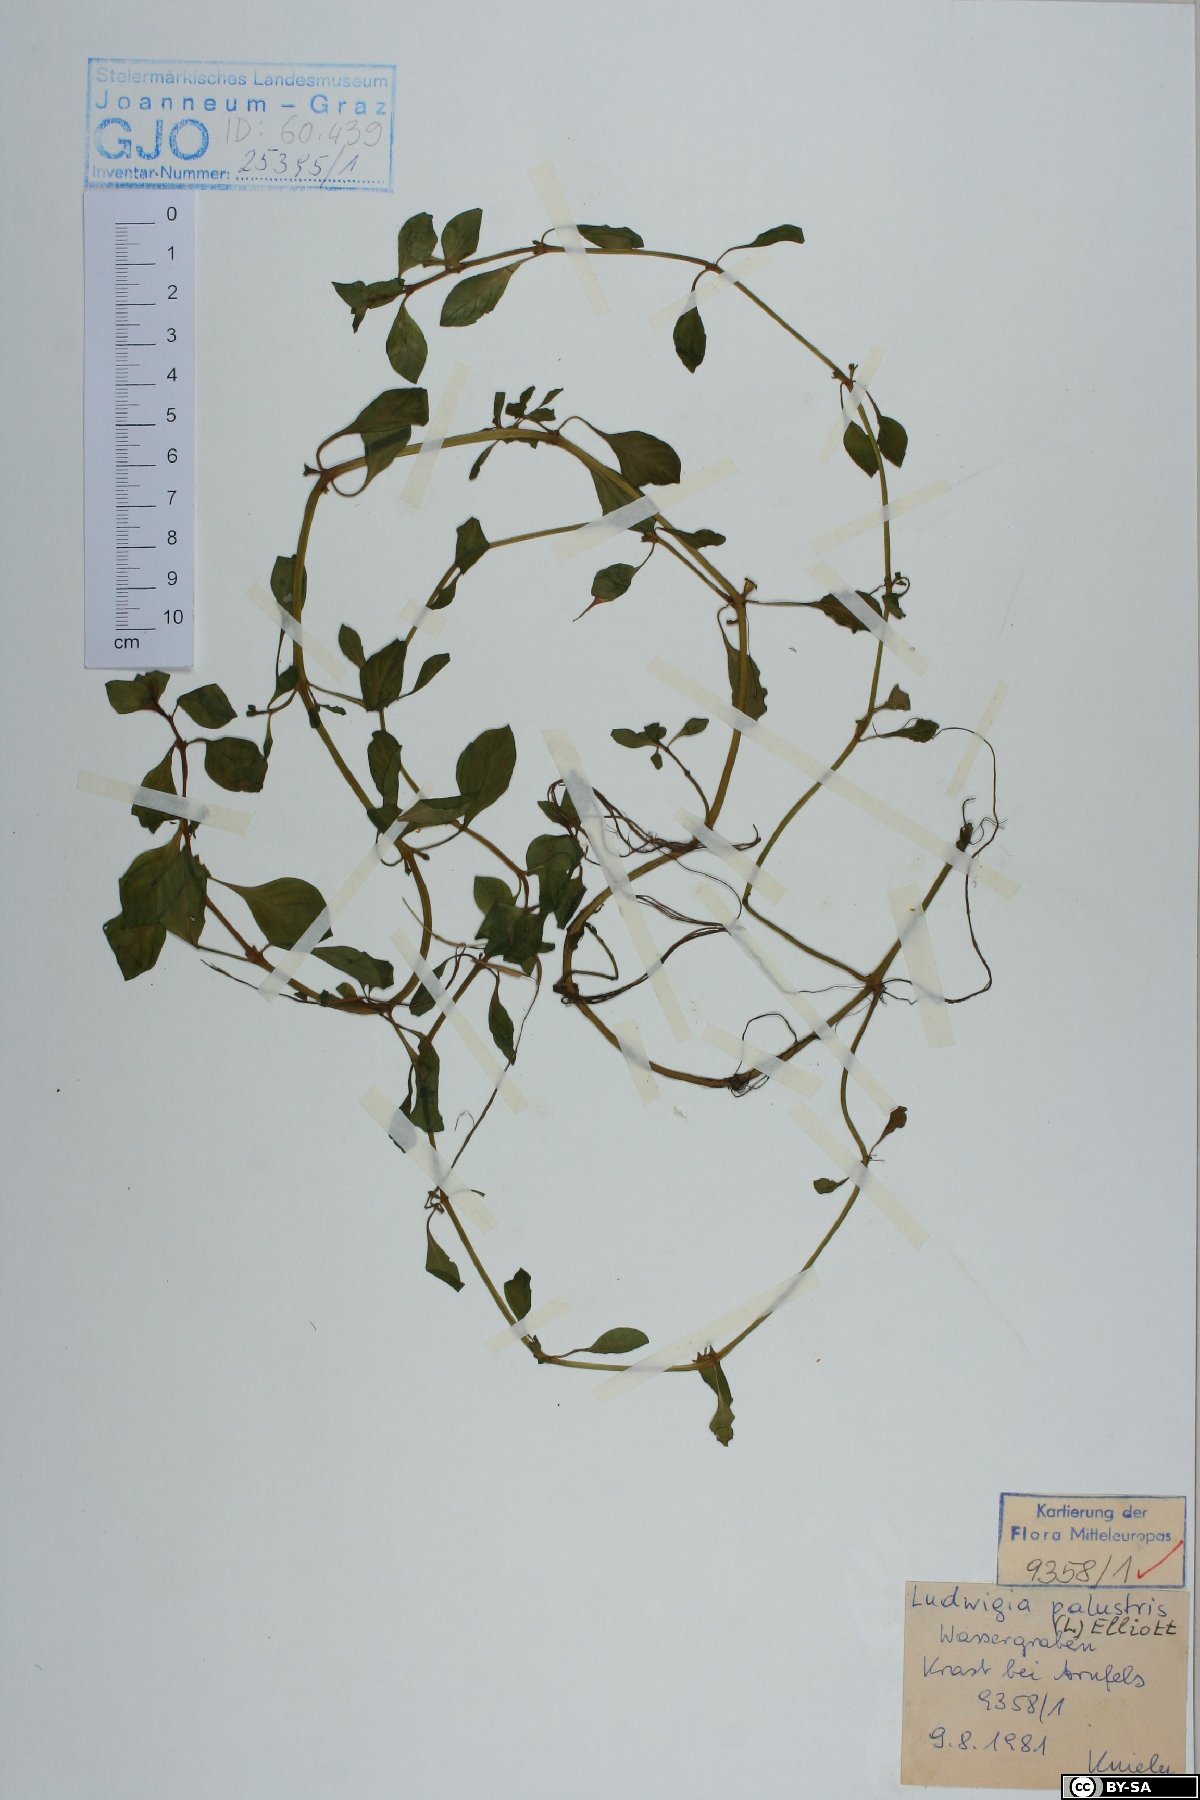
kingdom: Plantae
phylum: Tracheophyta
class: Magnoliopsida
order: Myrtales
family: Onagraceae
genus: Ludwigia
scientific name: Ludwigia palustris
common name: Hampshire-purslane
